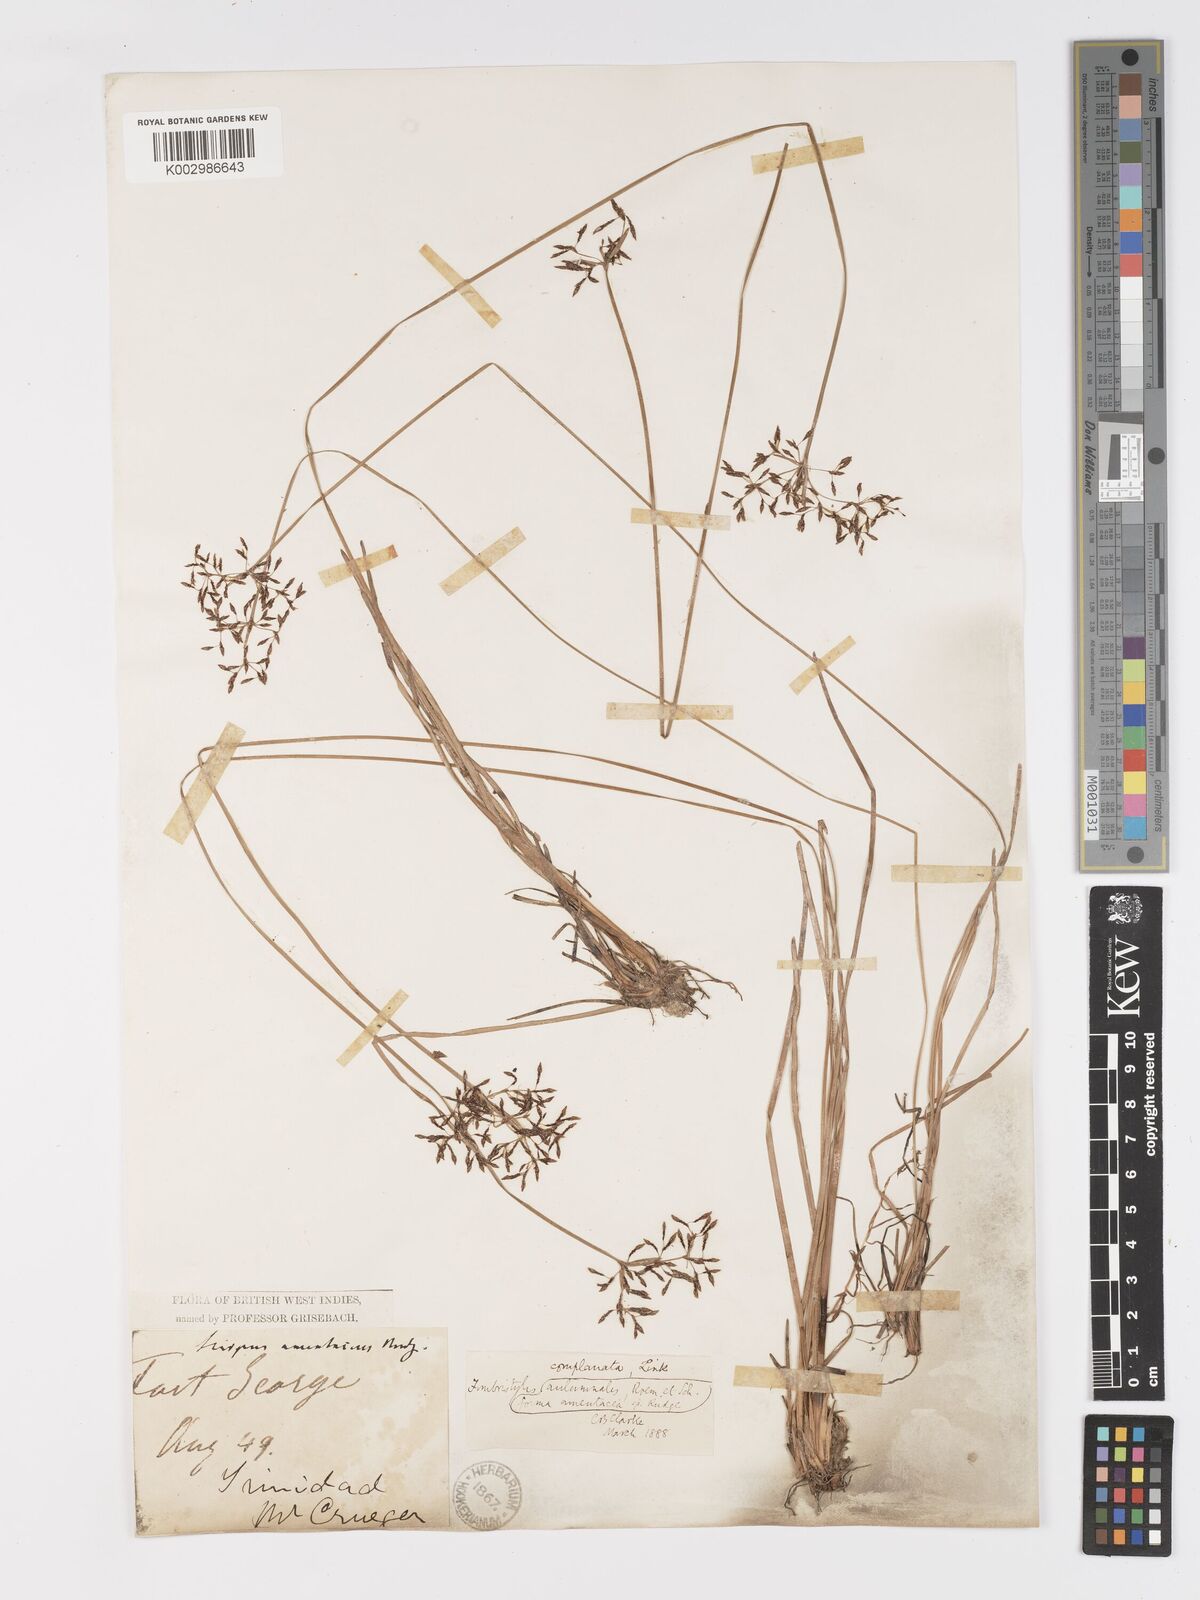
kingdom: Plantae
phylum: Tracheophyta
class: Liliopsida
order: Poales
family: Cyperaceae
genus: Fimbristylis
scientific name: Fimbristylis complanata
